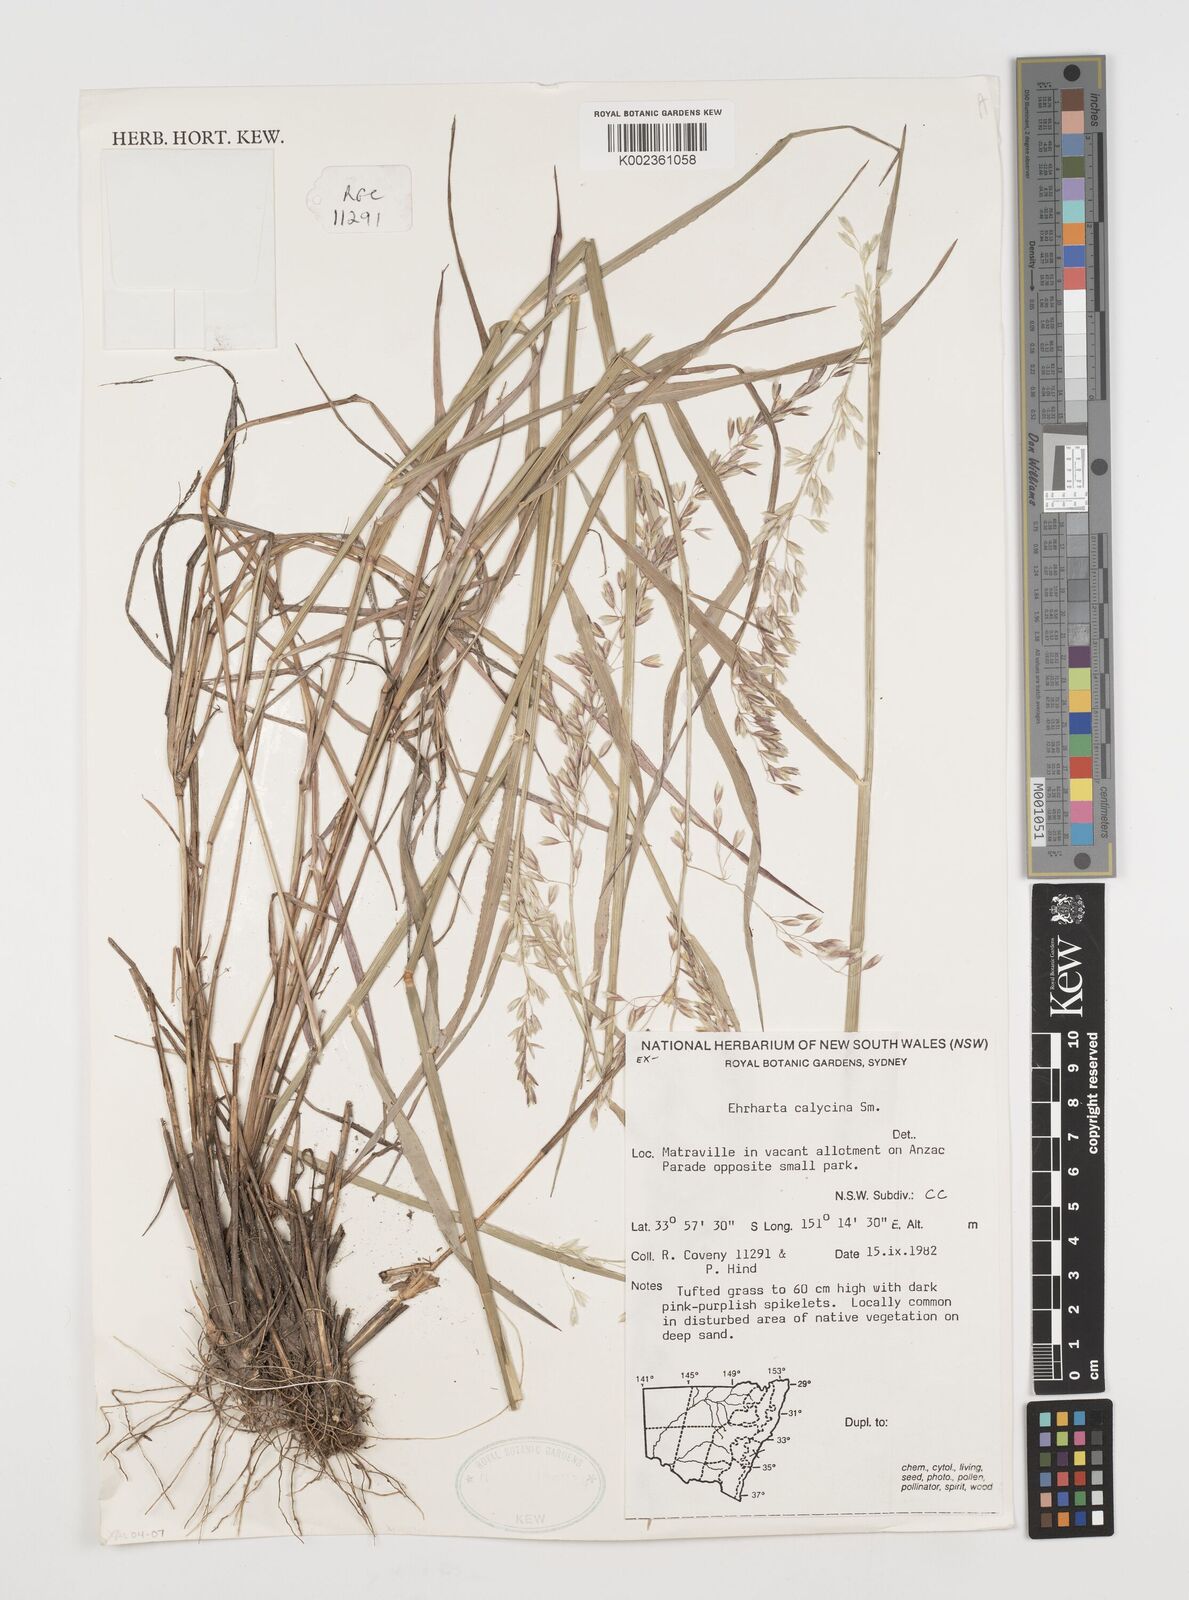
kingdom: Plantae
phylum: Tracheophyta
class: Liliopsida
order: Poales
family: Poaceae
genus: Ehrharta
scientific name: Ehrharta calycina
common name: Perennial veldtgrass
